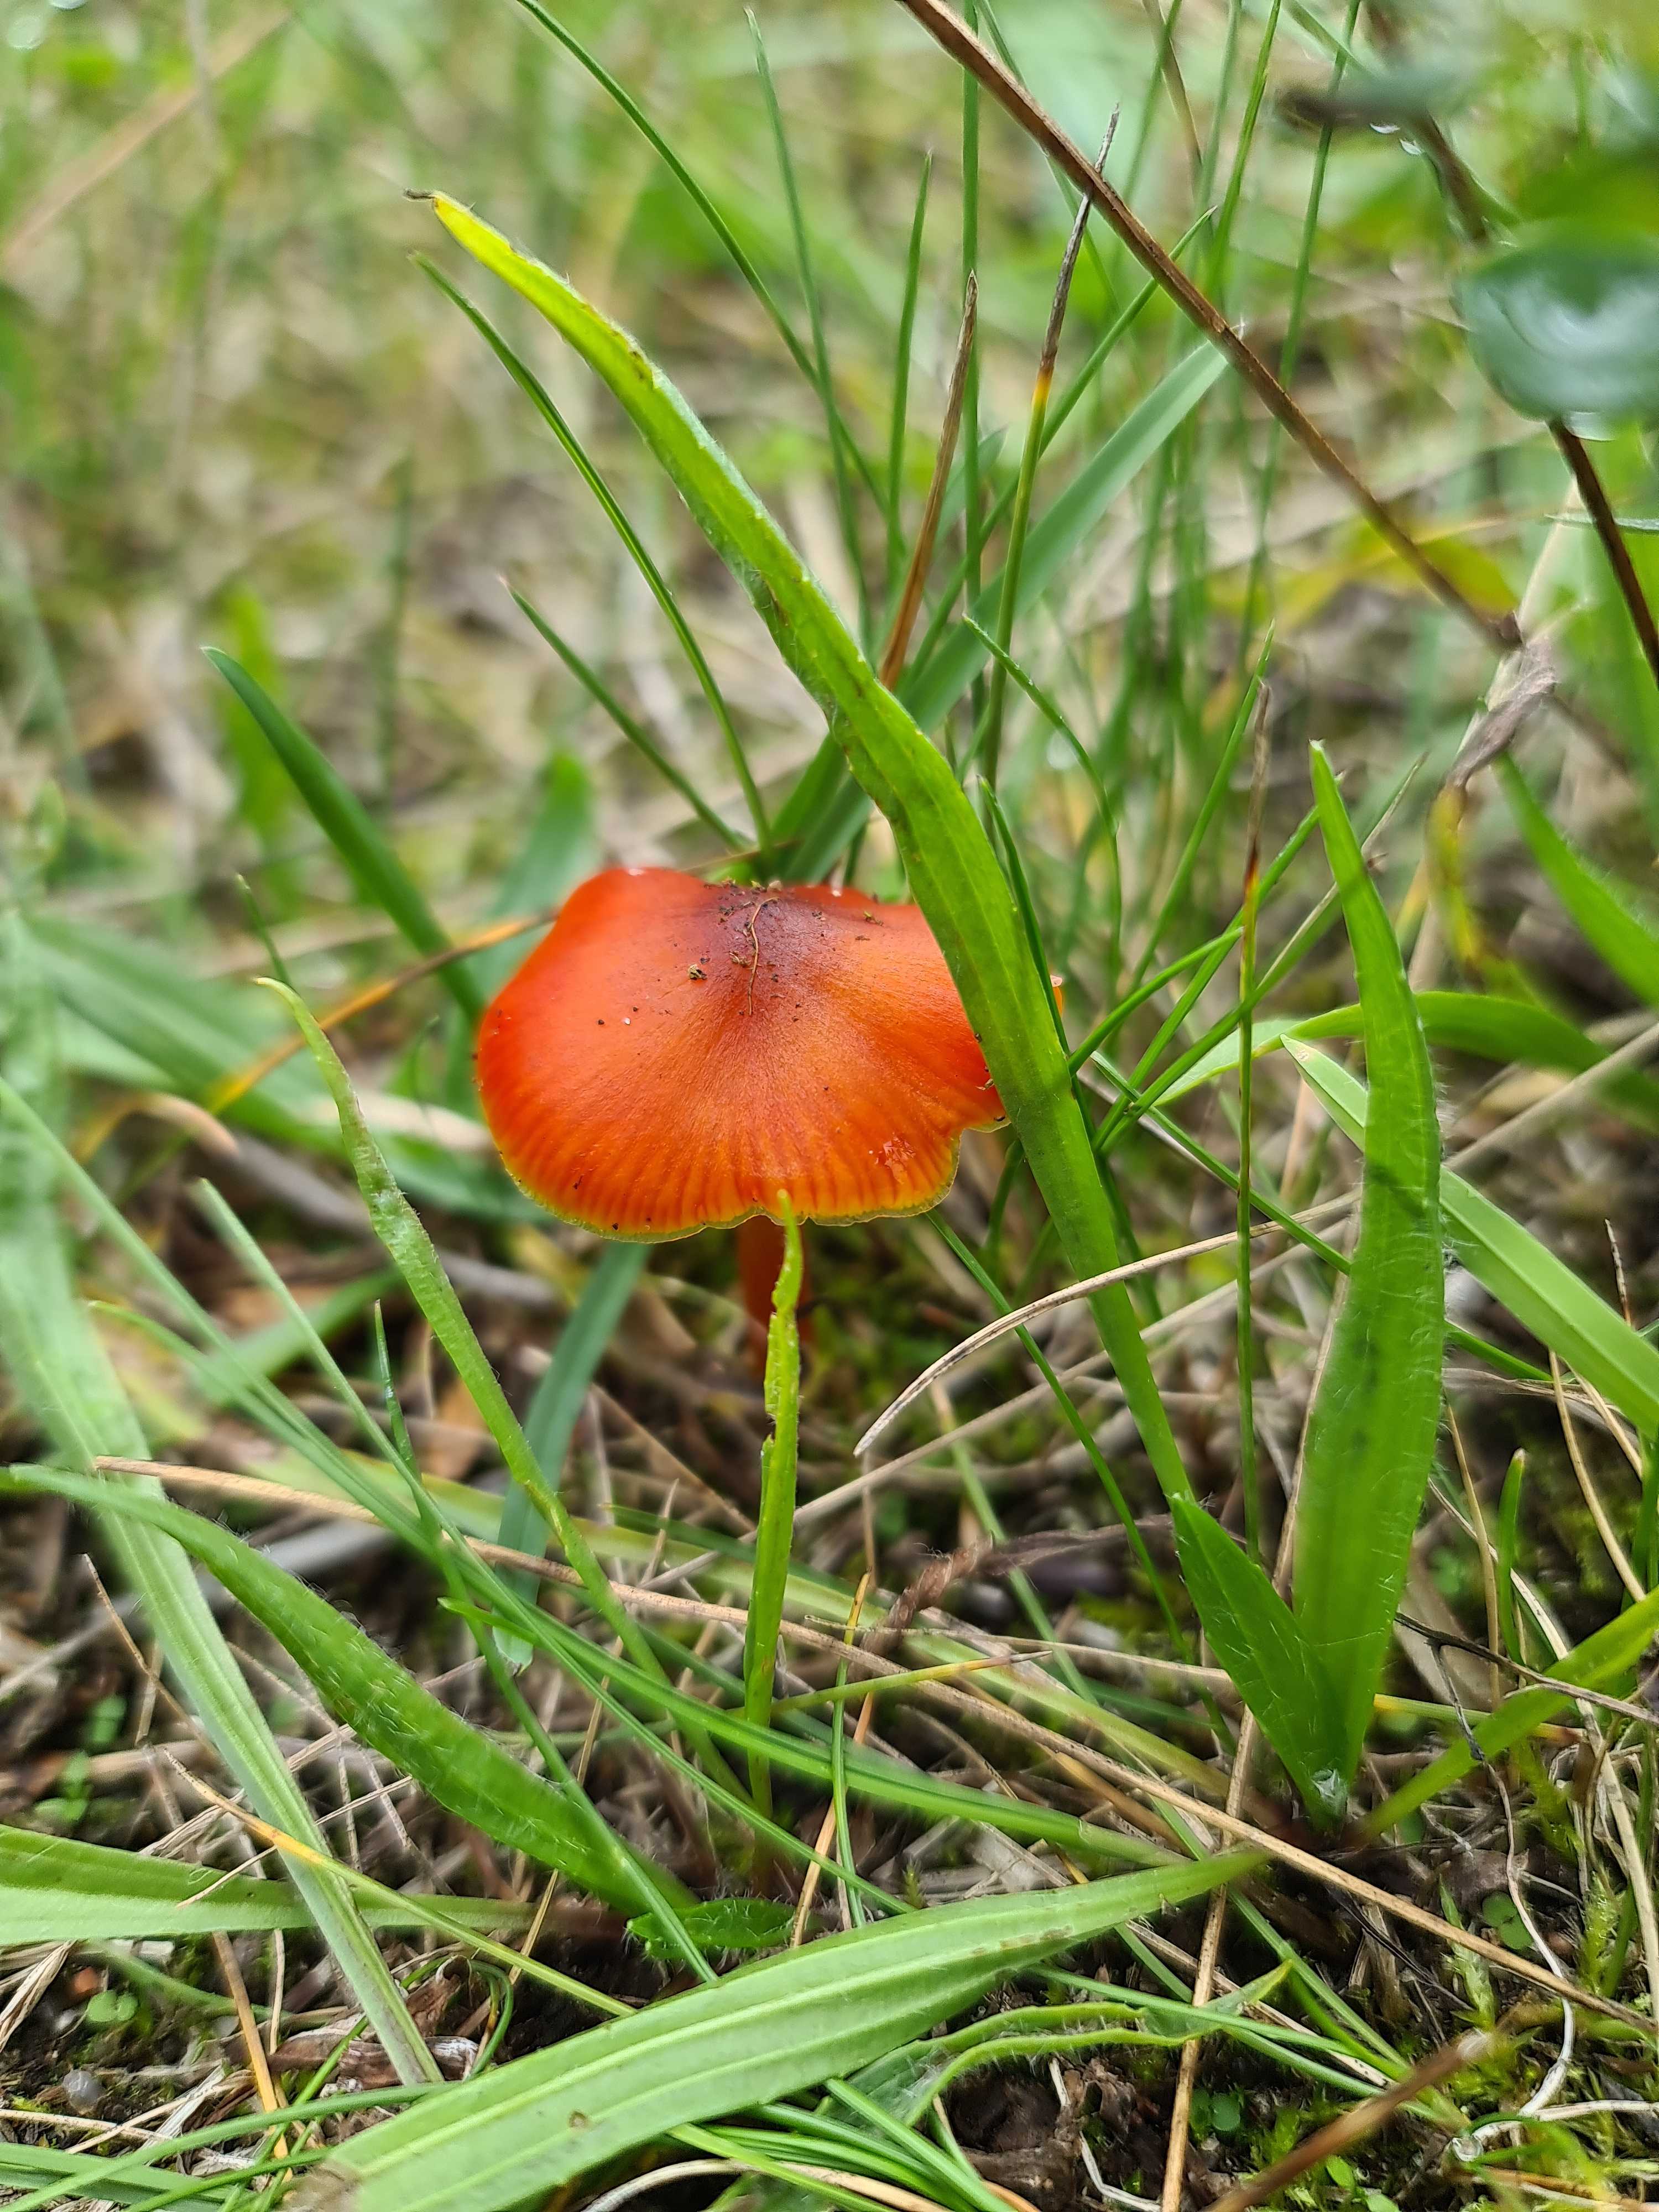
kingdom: Fungi
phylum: Basidiomycota
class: Agaricomycetes
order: Agaricales
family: Hygrophoraceae
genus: Hygrocybe
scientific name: Hygrocybe conica
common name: kegle-vokshat
